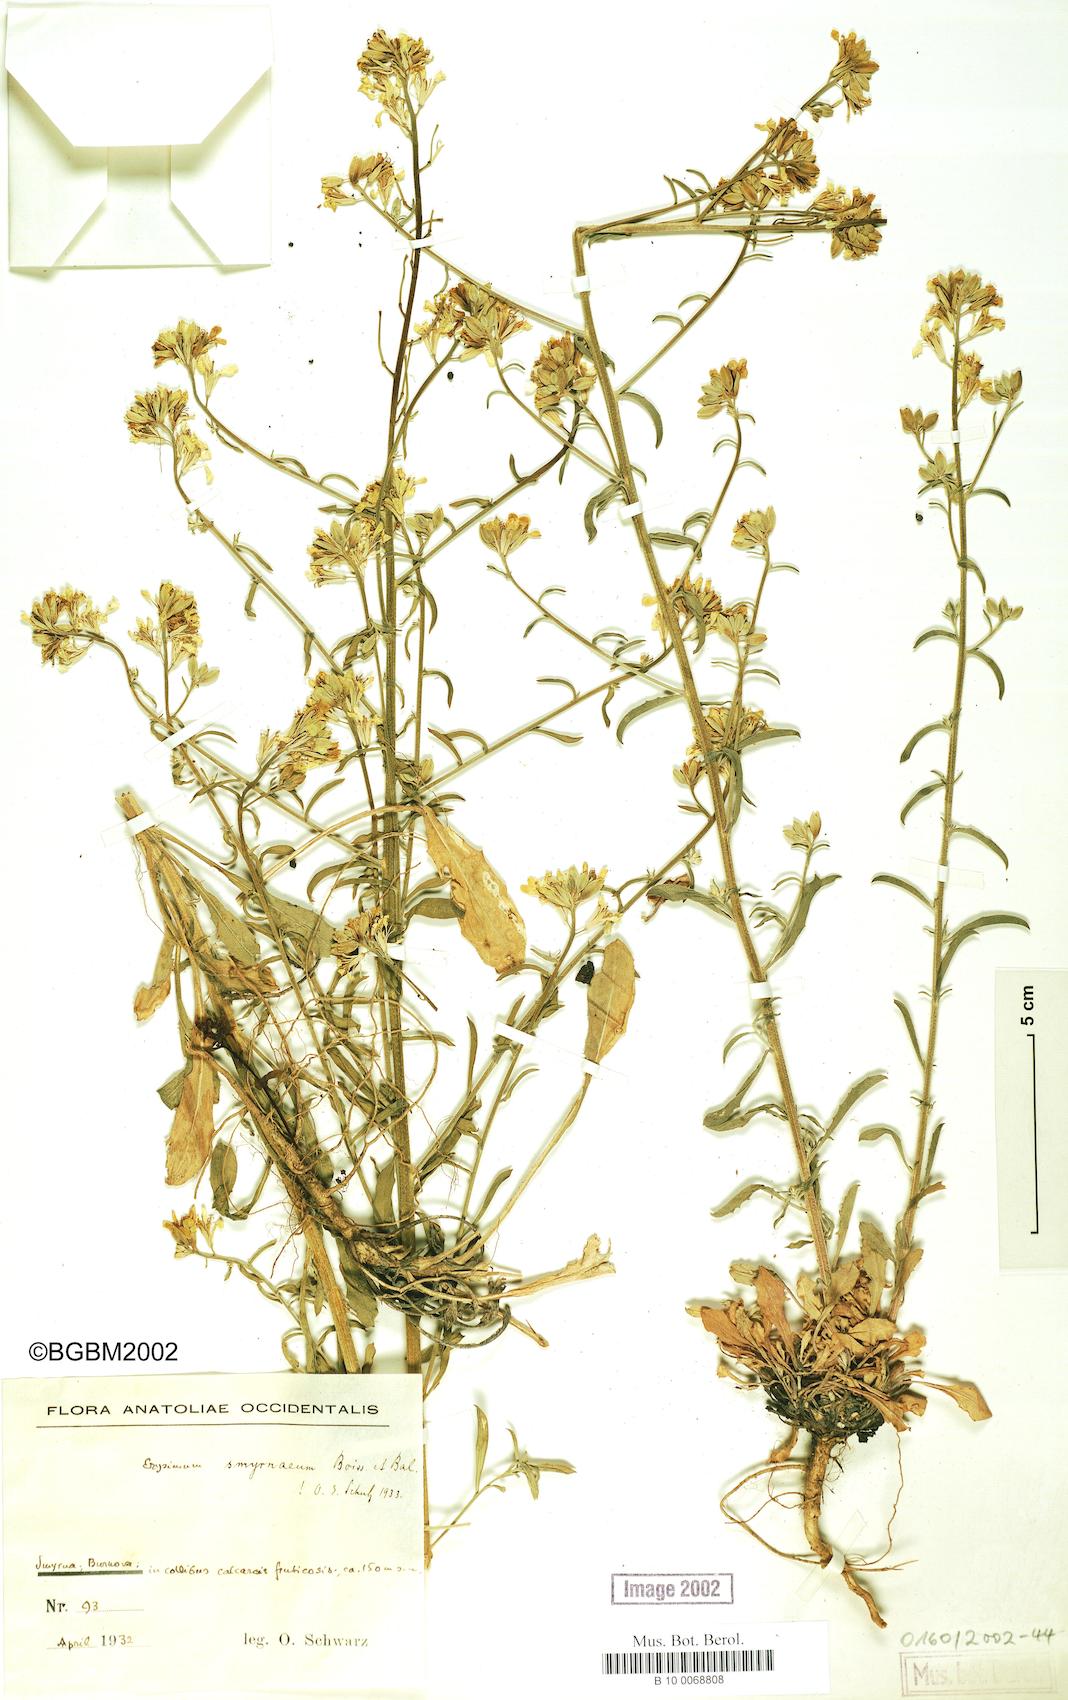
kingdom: Plantae
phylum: Tracheophyta
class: Magnoliopsida
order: Brassicales
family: Brassicaceae
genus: Erysimum
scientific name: Erysimum smyrnaeum
